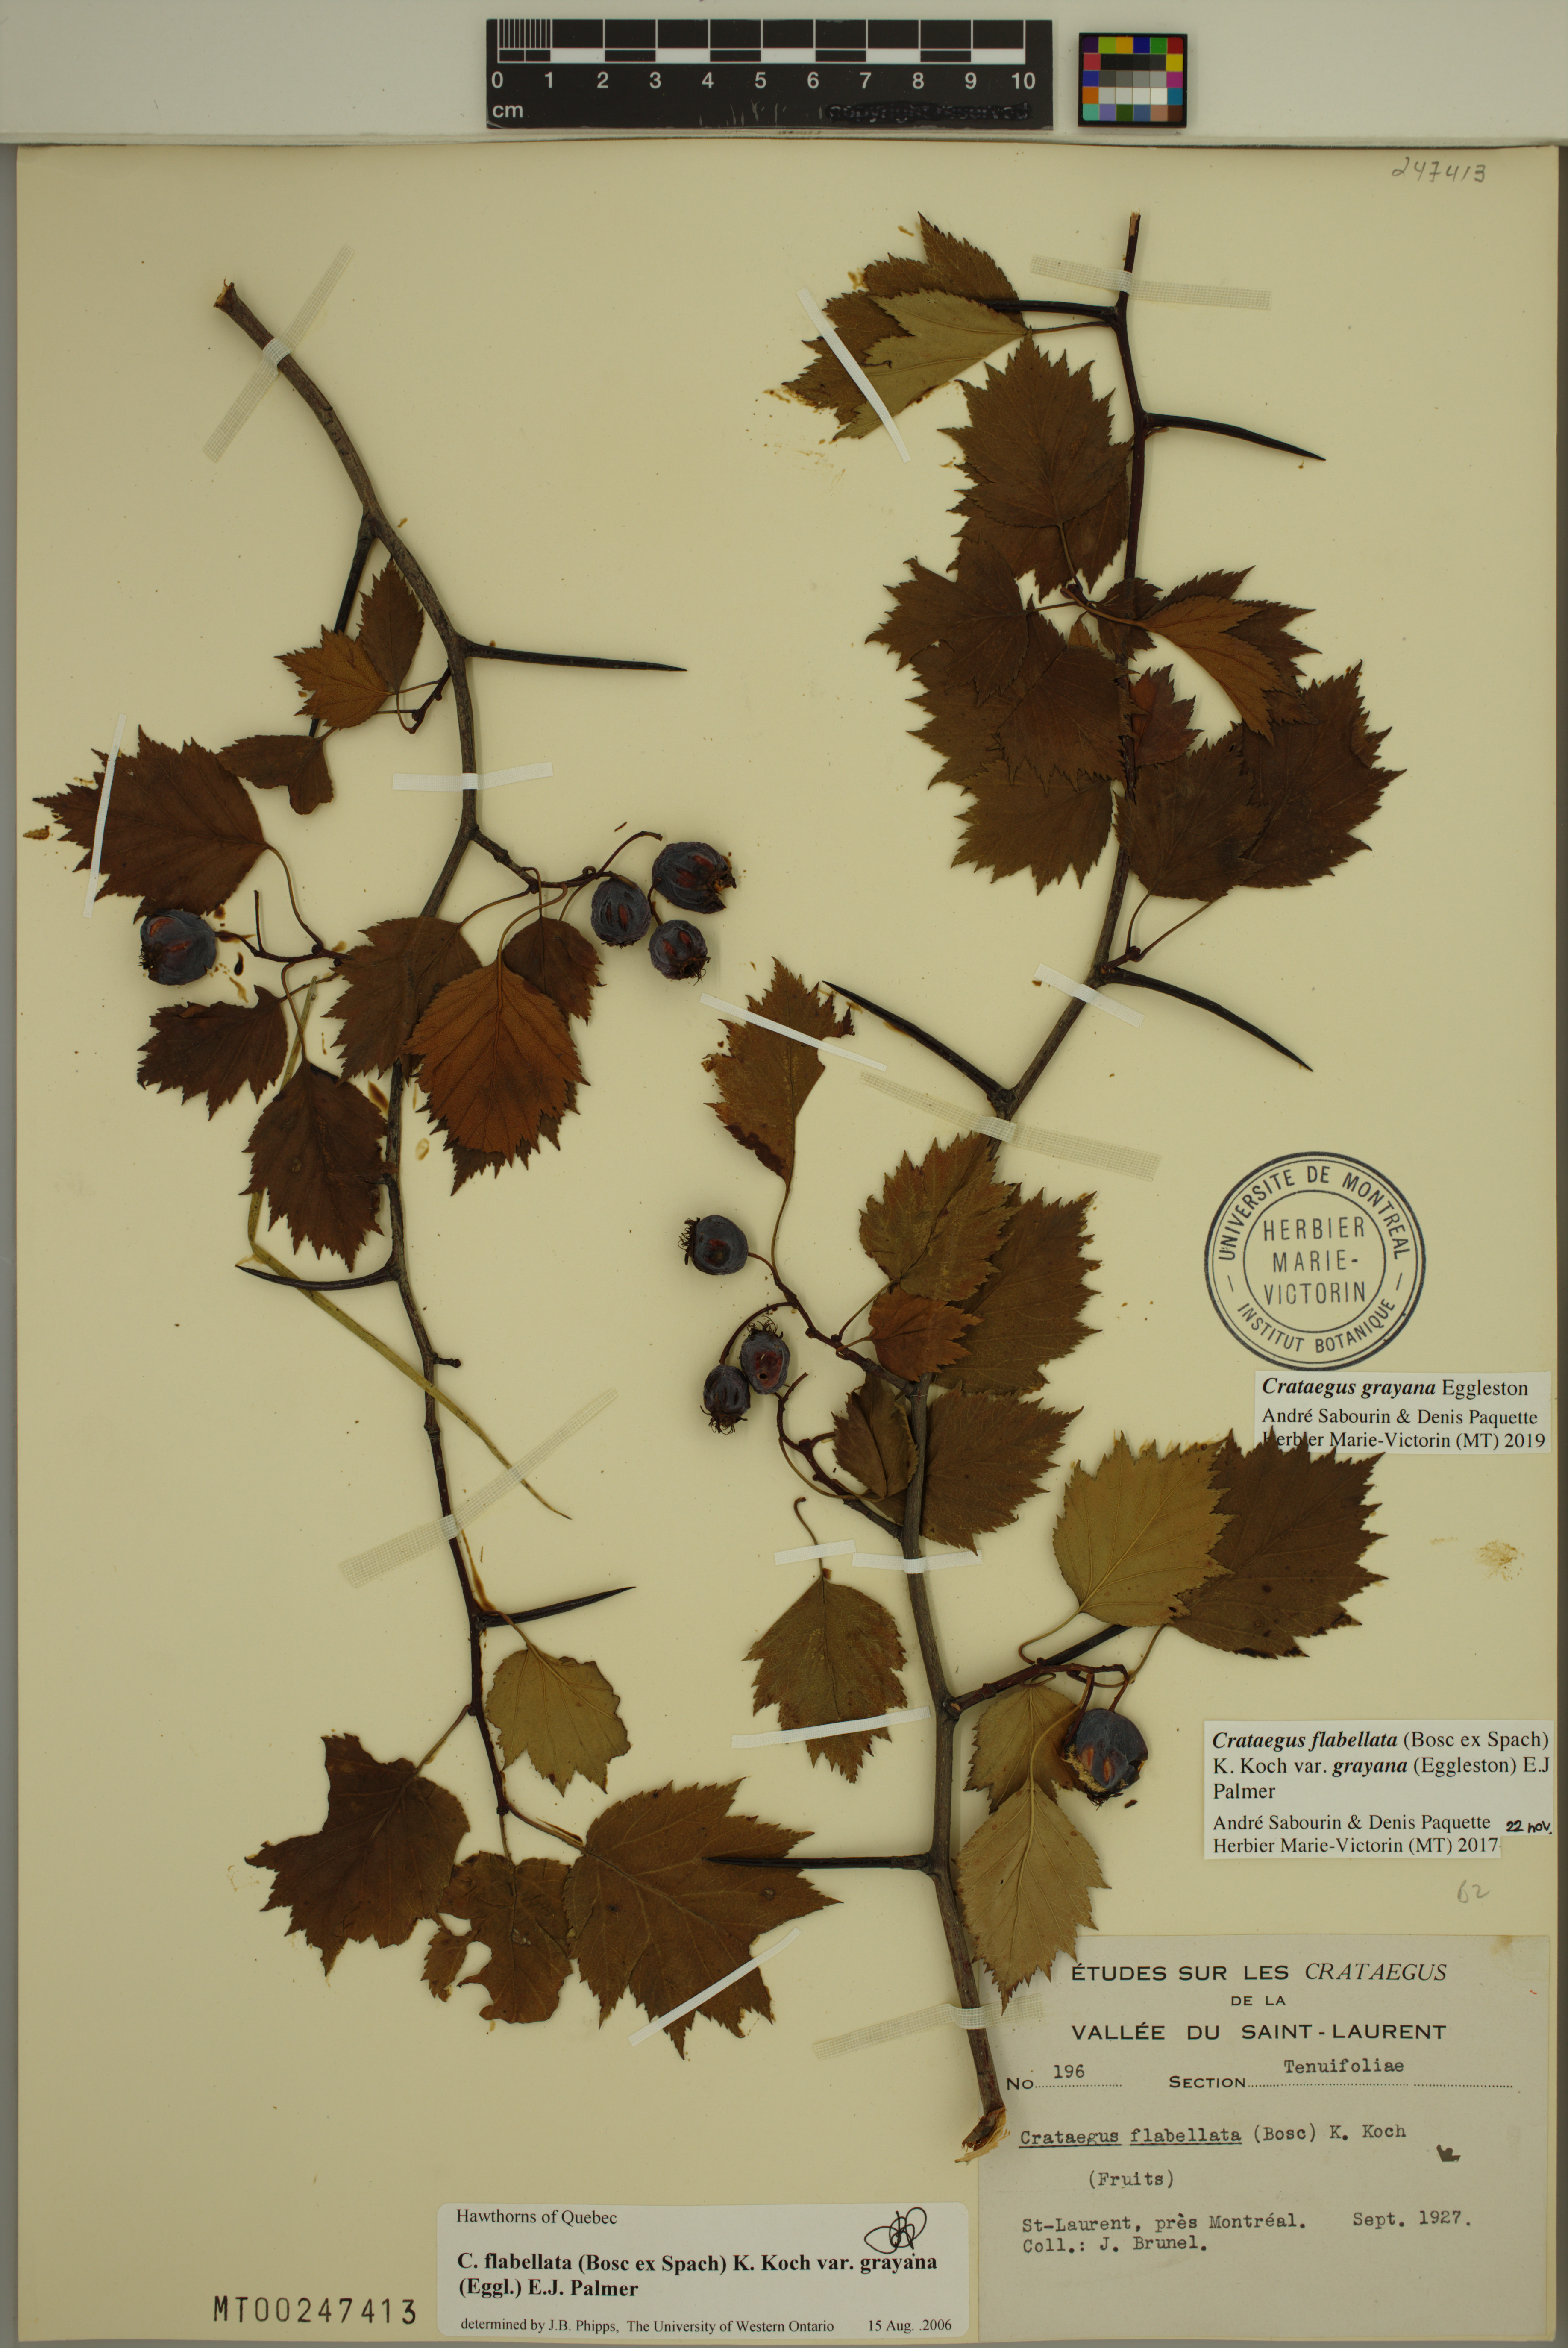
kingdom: Plantae
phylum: Tracheophyta
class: Magnoliopsida
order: Rosales
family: Rosaceae
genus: Crataegus
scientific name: Crataegus schuettei
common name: Schuette's hawthorn
